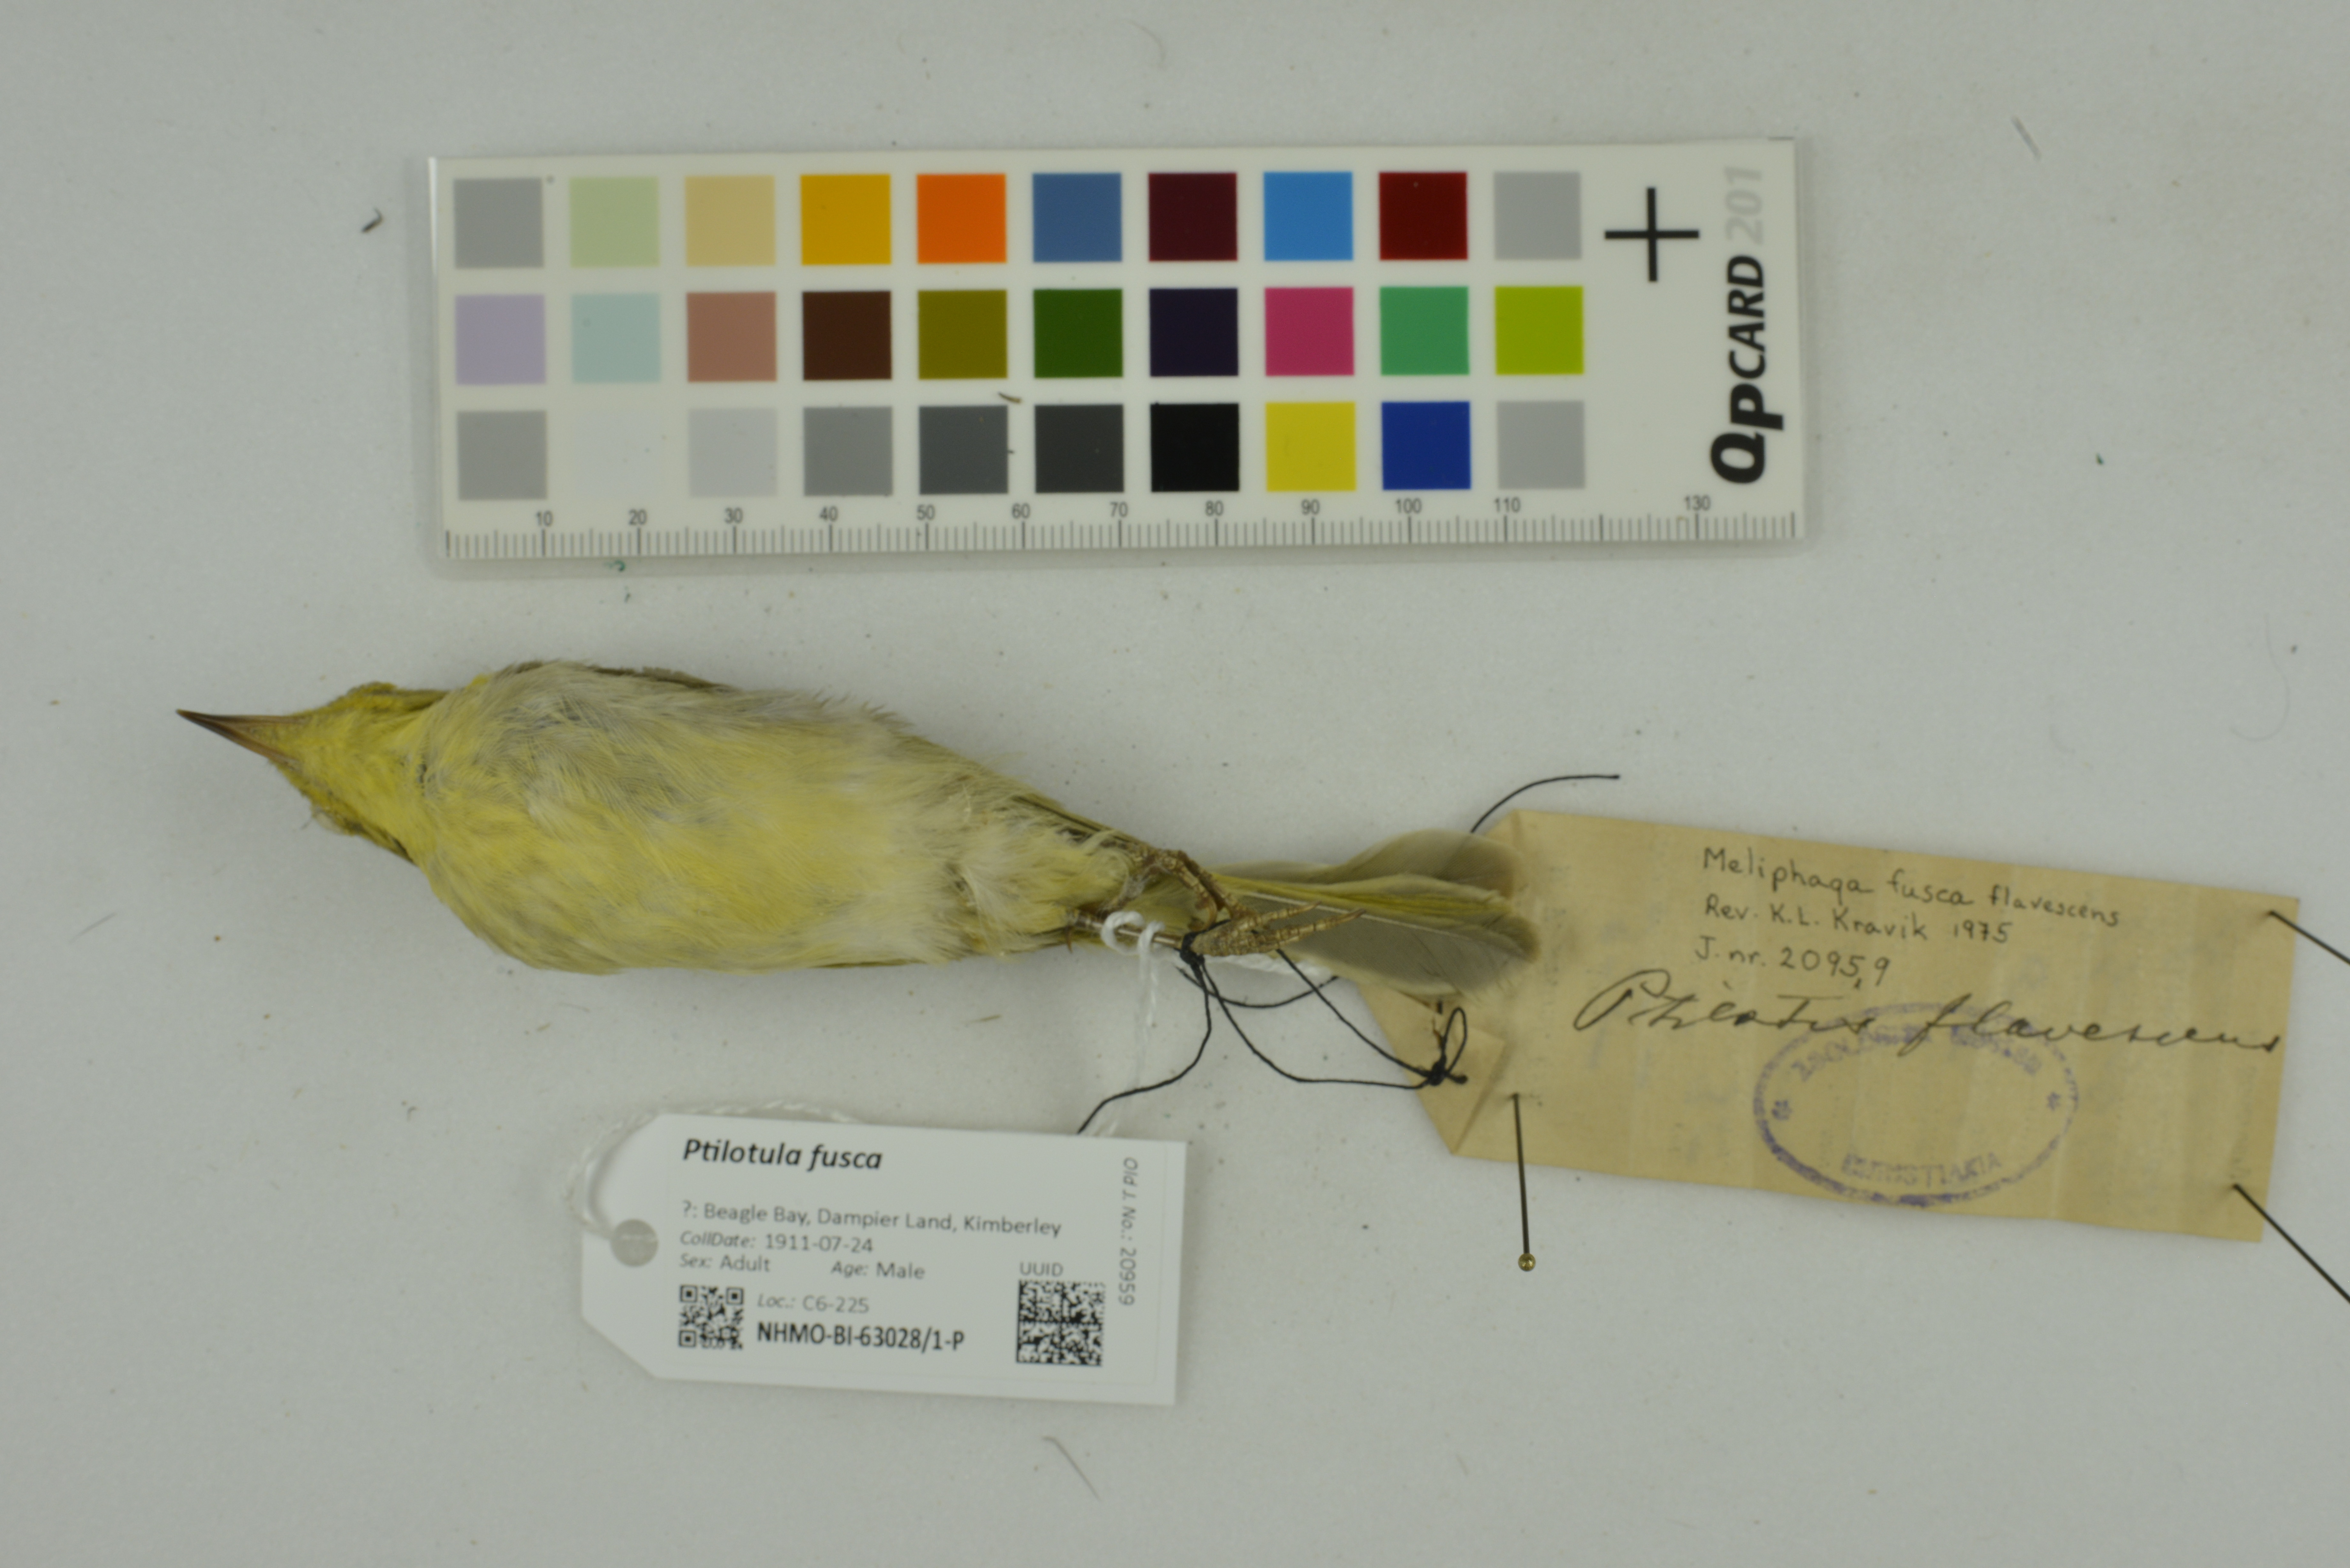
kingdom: Animalia
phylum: Chordata
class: Aves
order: Passeriformes
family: Meliphagidae
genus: Ptilotula
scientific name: Ptilotula fusca
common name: Fuscous honeyeater
